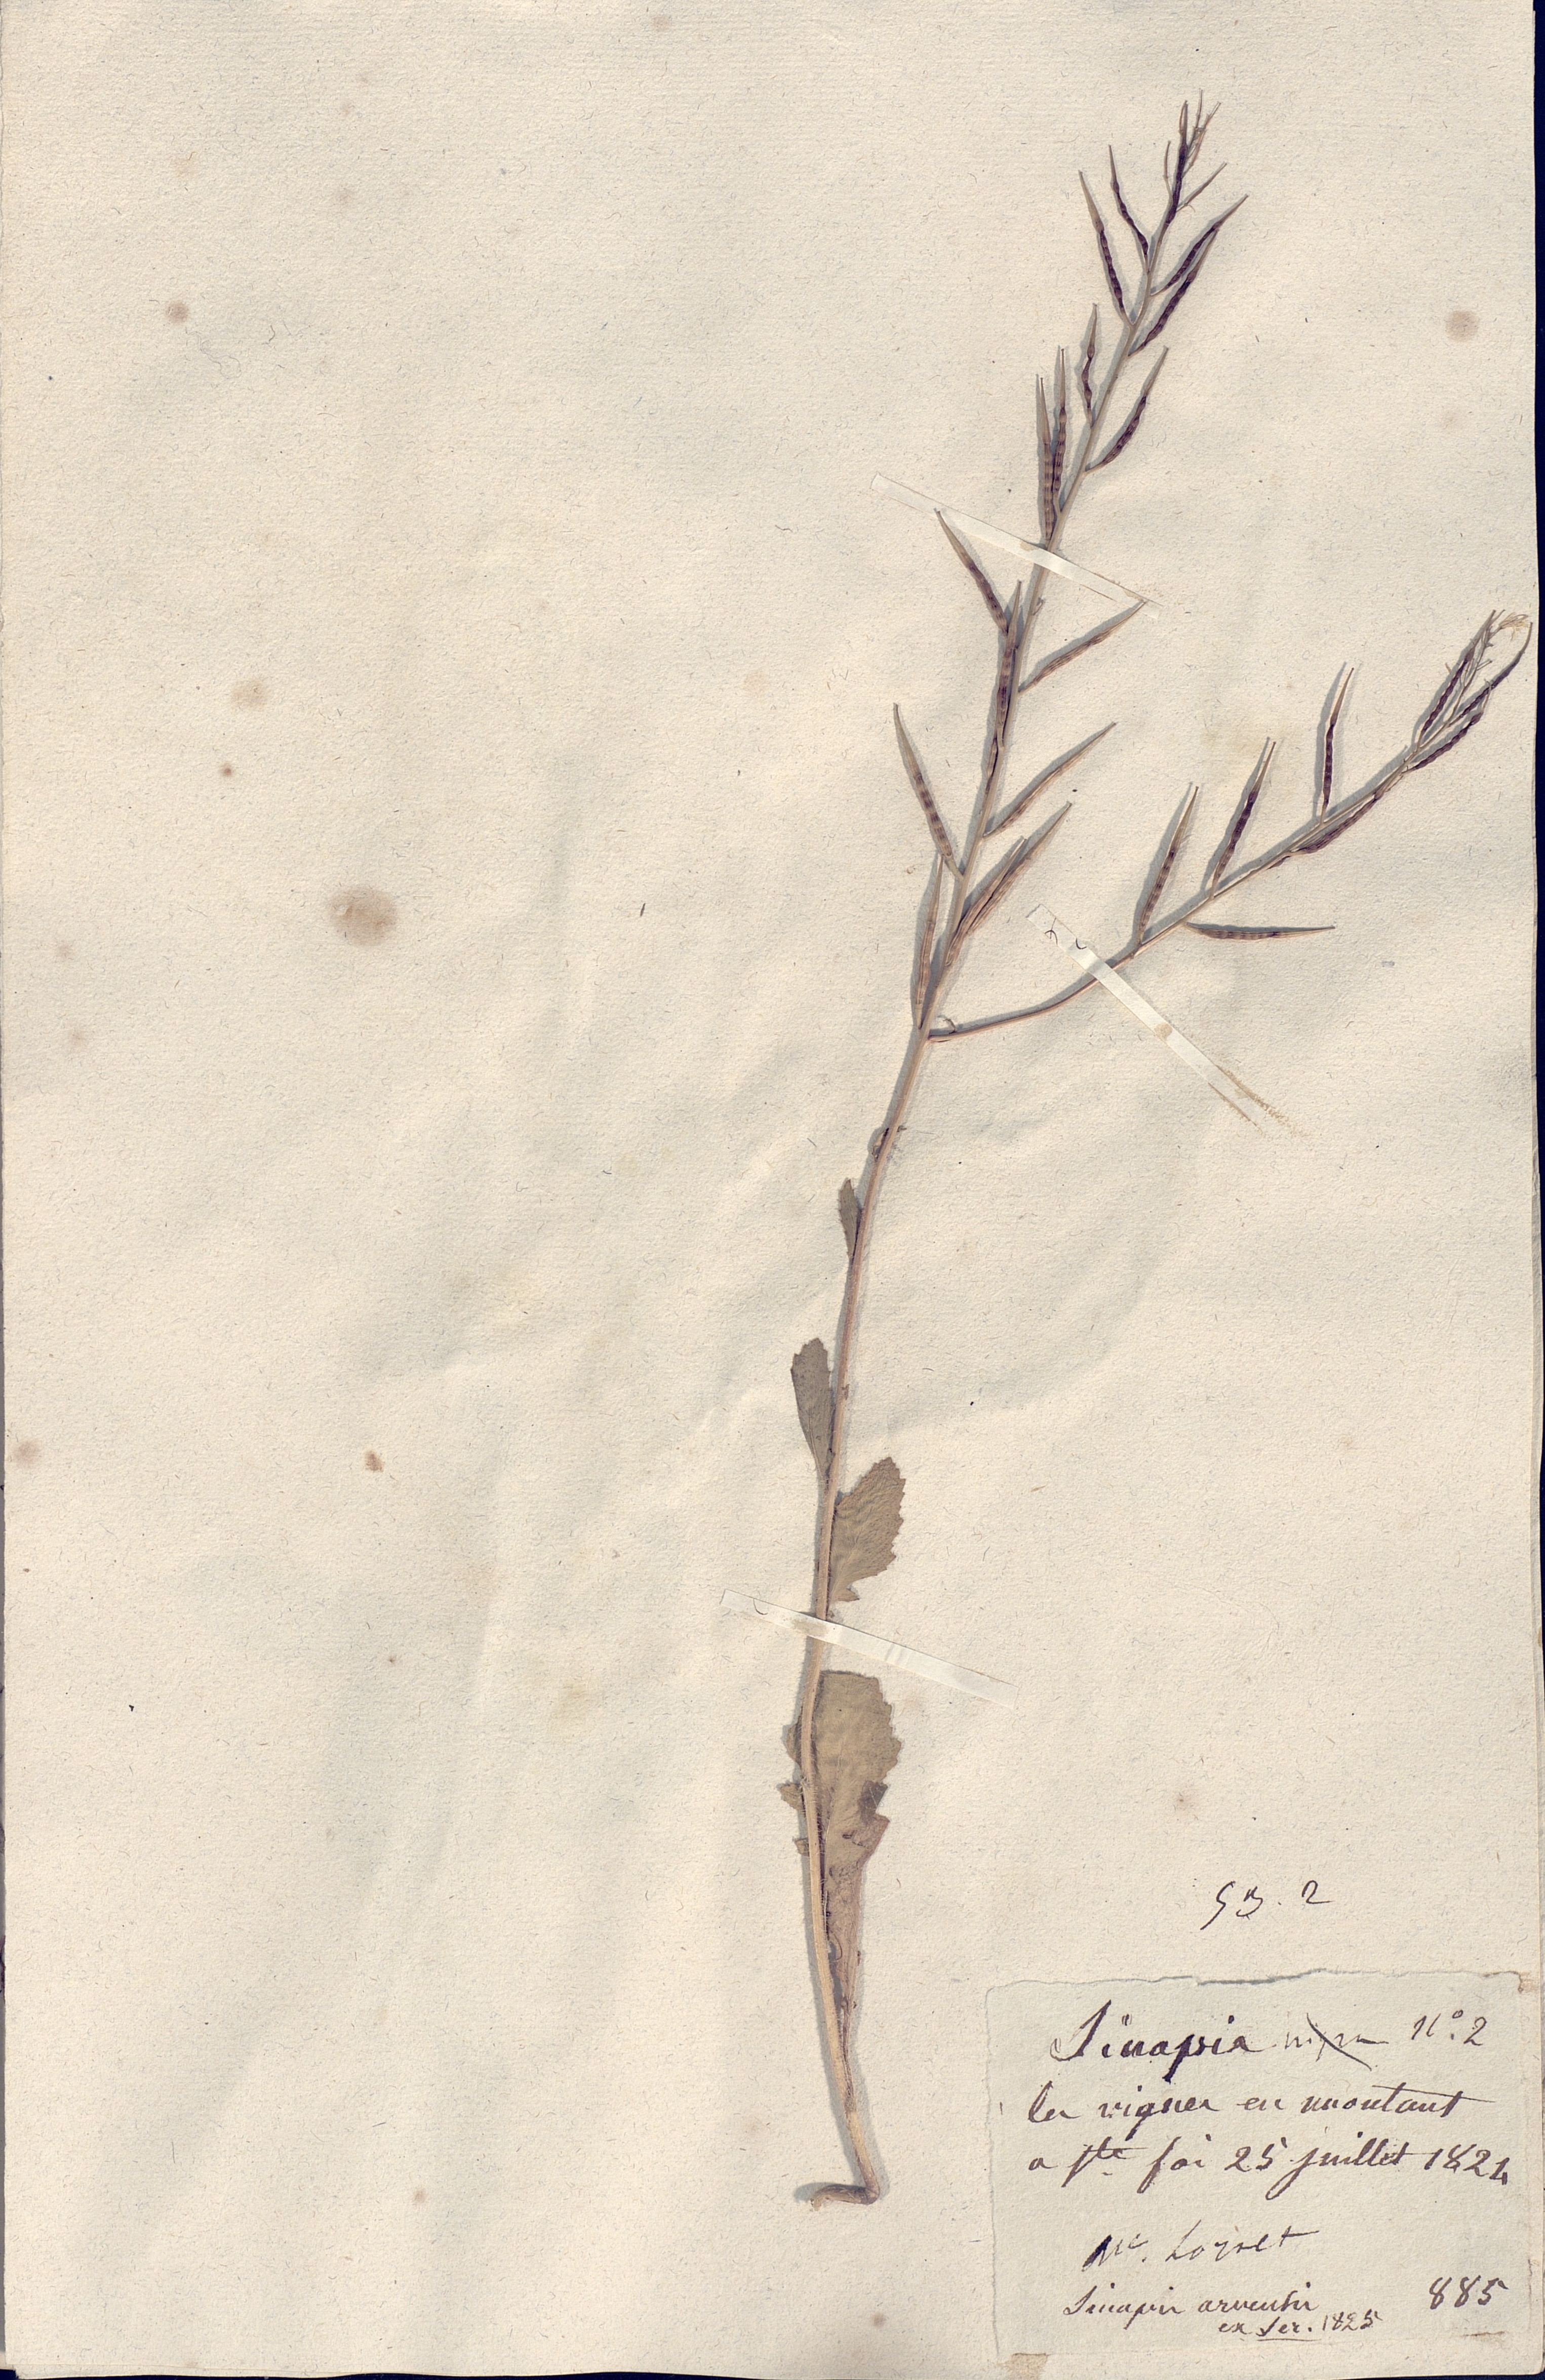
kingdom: Plantae
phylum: Tracheophyta
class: Magnoliopsida
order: Brassicales
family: Brassicaceae
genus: Sinapis
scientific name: Sinapis arvensis
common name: Charlock
